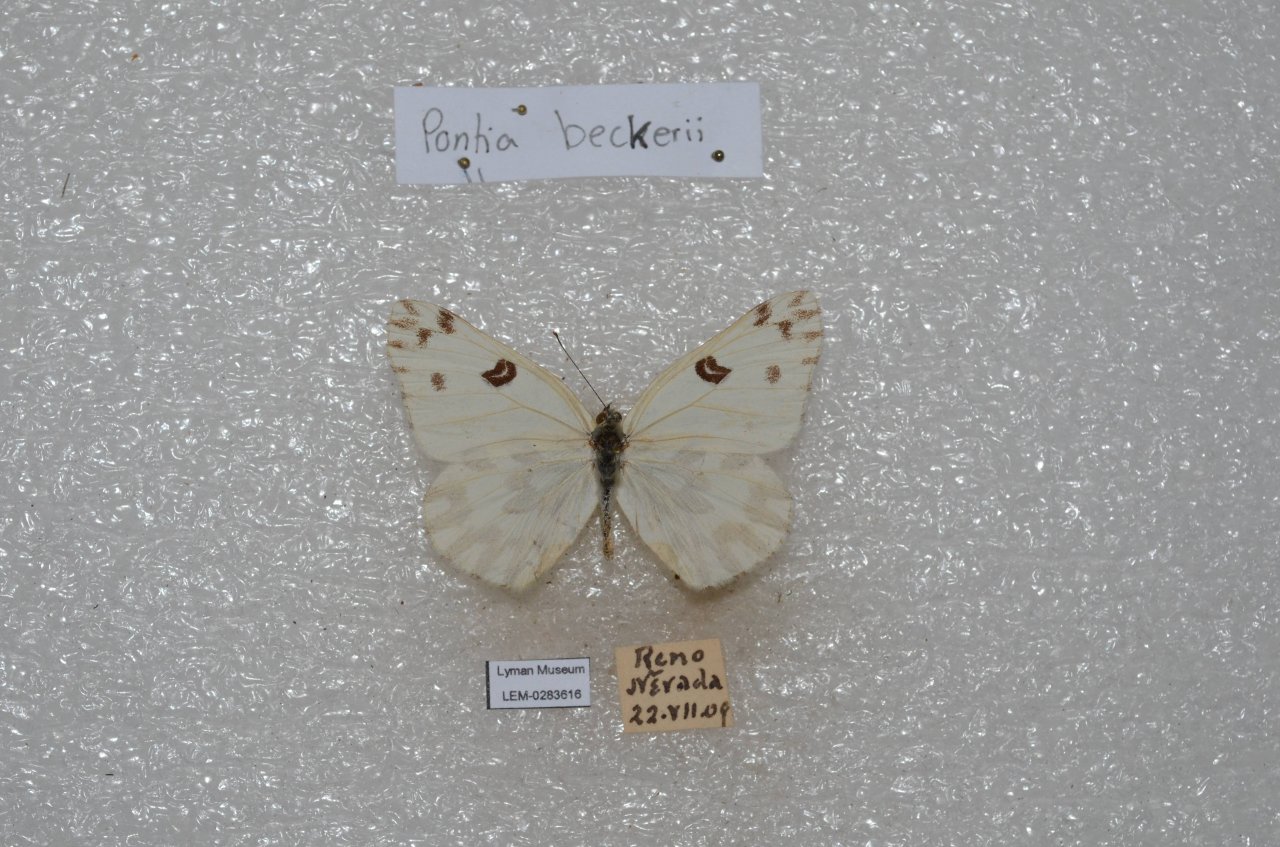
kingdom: Animalia
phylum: Arthropoda
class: Insecta
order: Lepidoptera
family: Pieridae
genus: Pontia
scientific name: Pontia beckerii
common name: Becker's White
